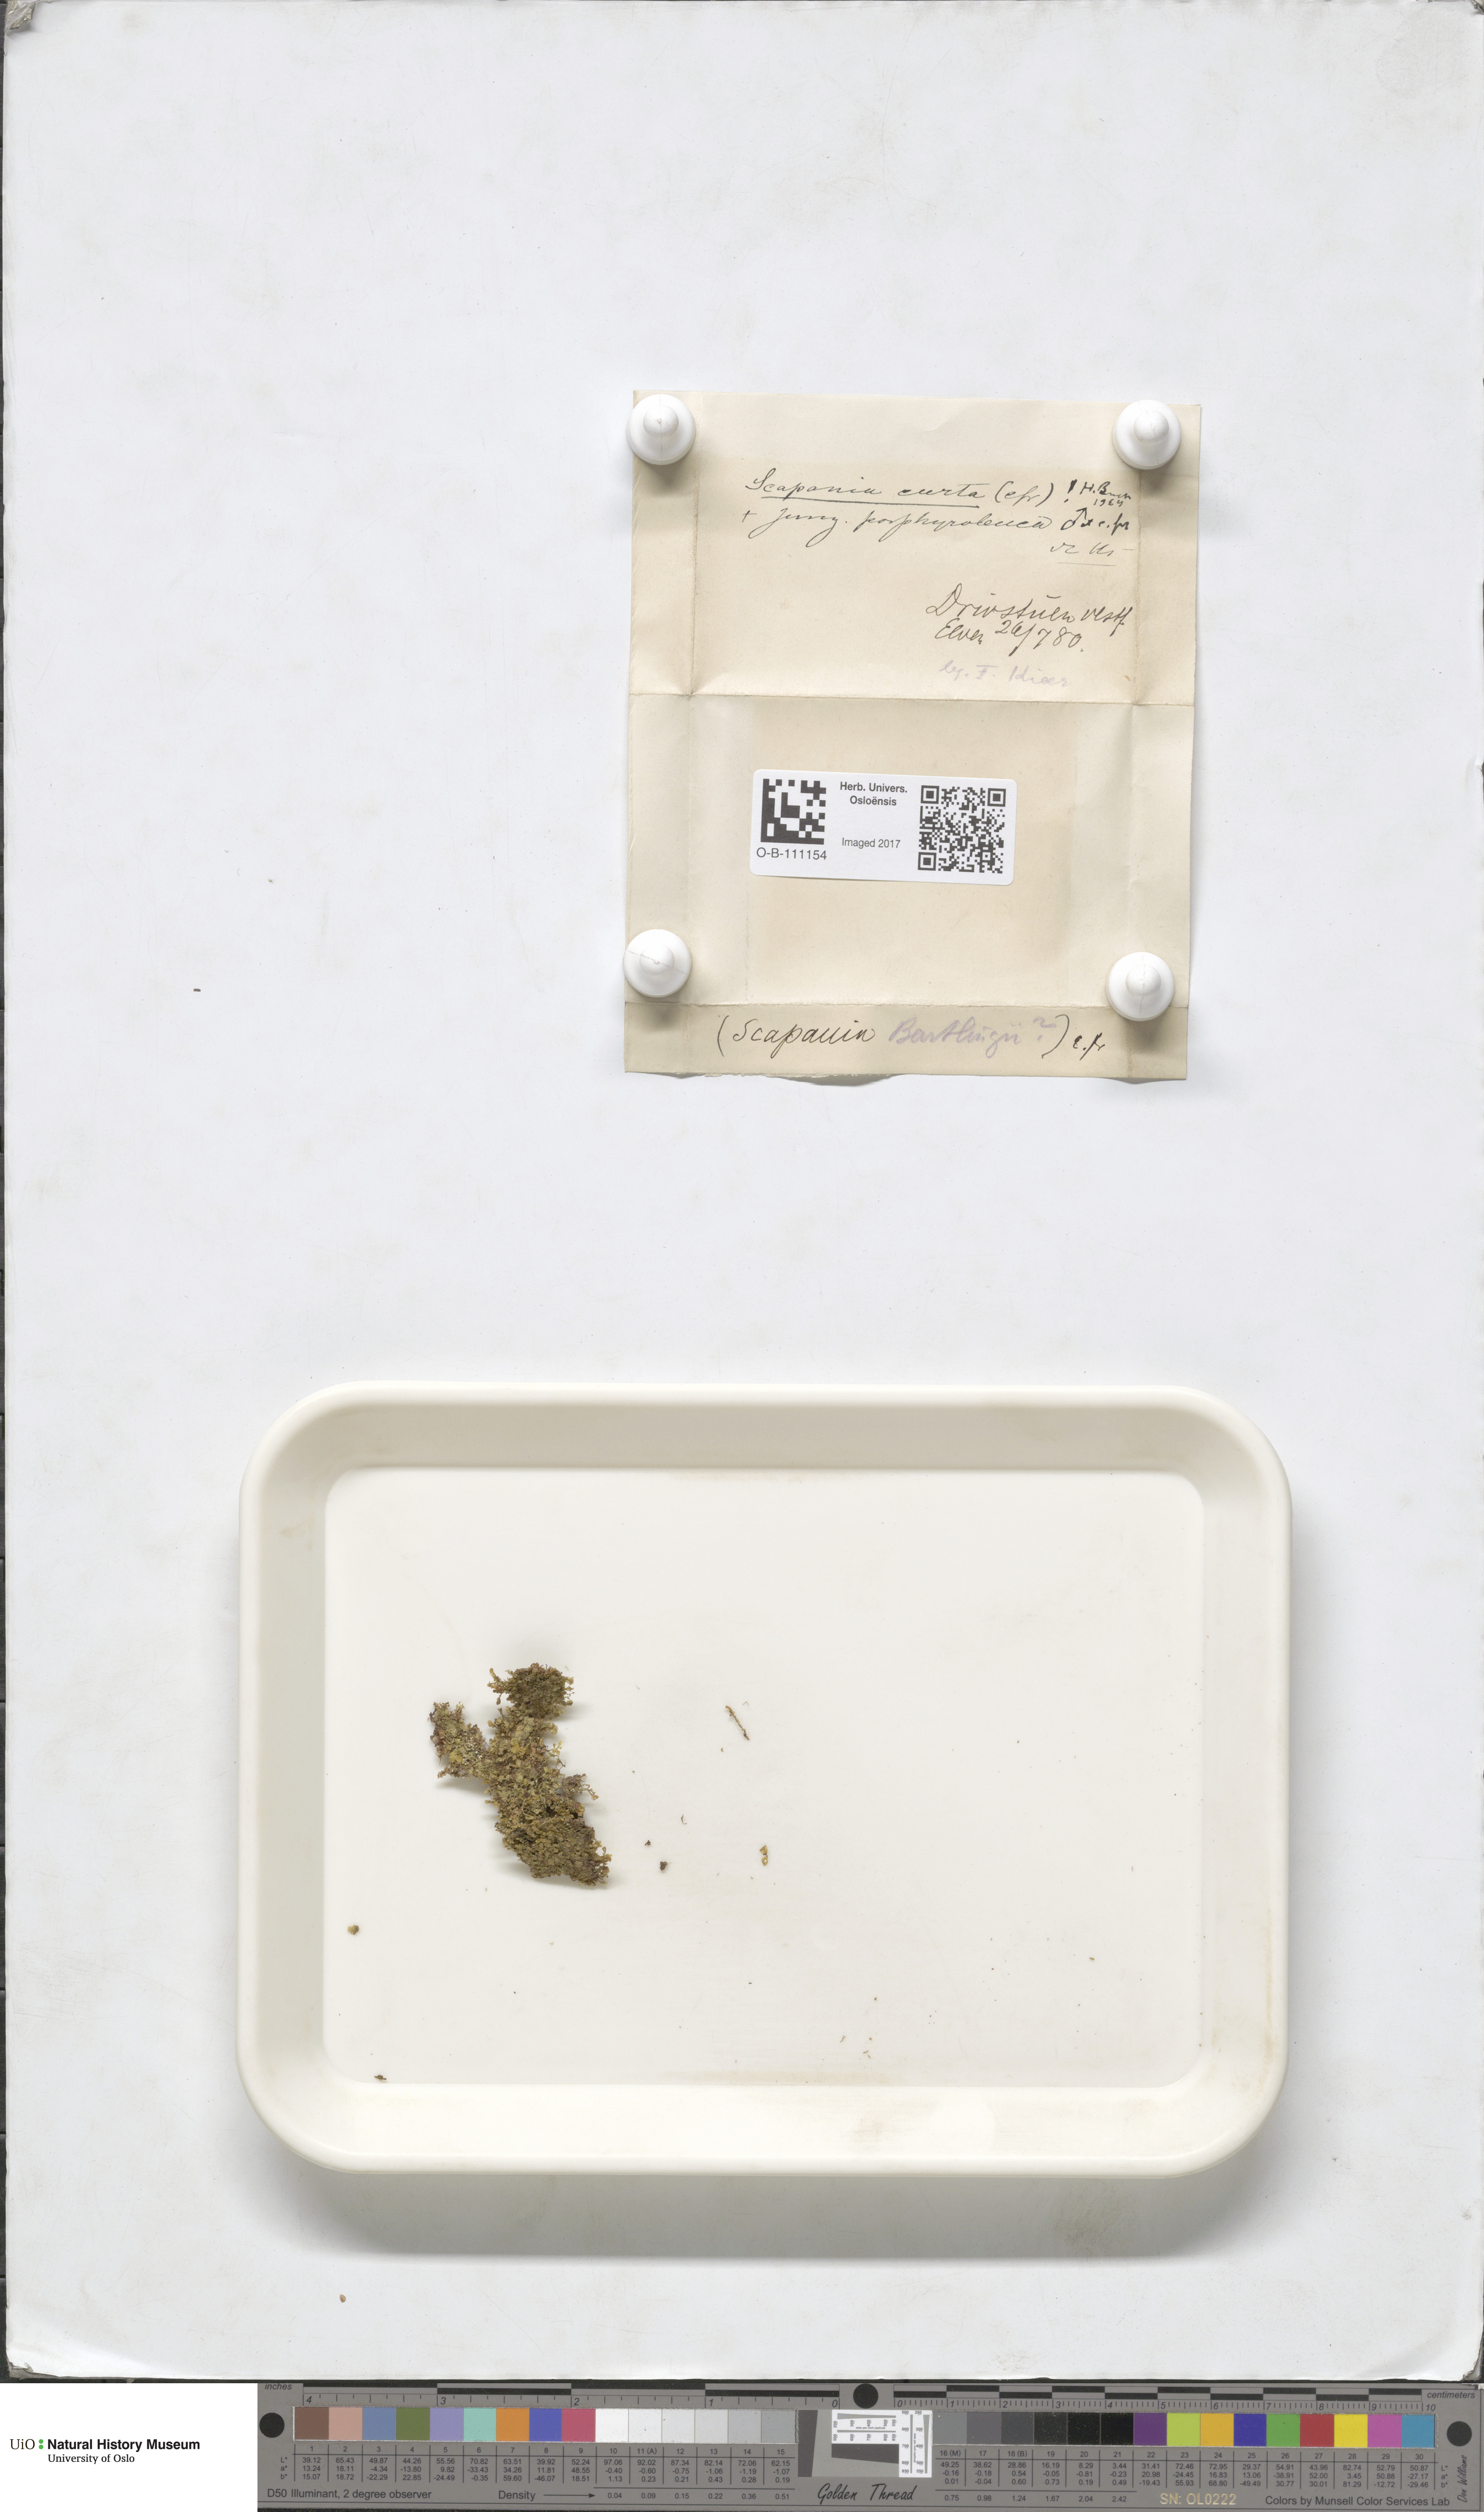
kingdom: Plantae
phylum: Marchantiophyta
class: Jungermanniopsida
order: Jungermanniales
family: Scapaniaceae
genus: Scapania
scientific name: Scapania curta
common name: Least earwort
